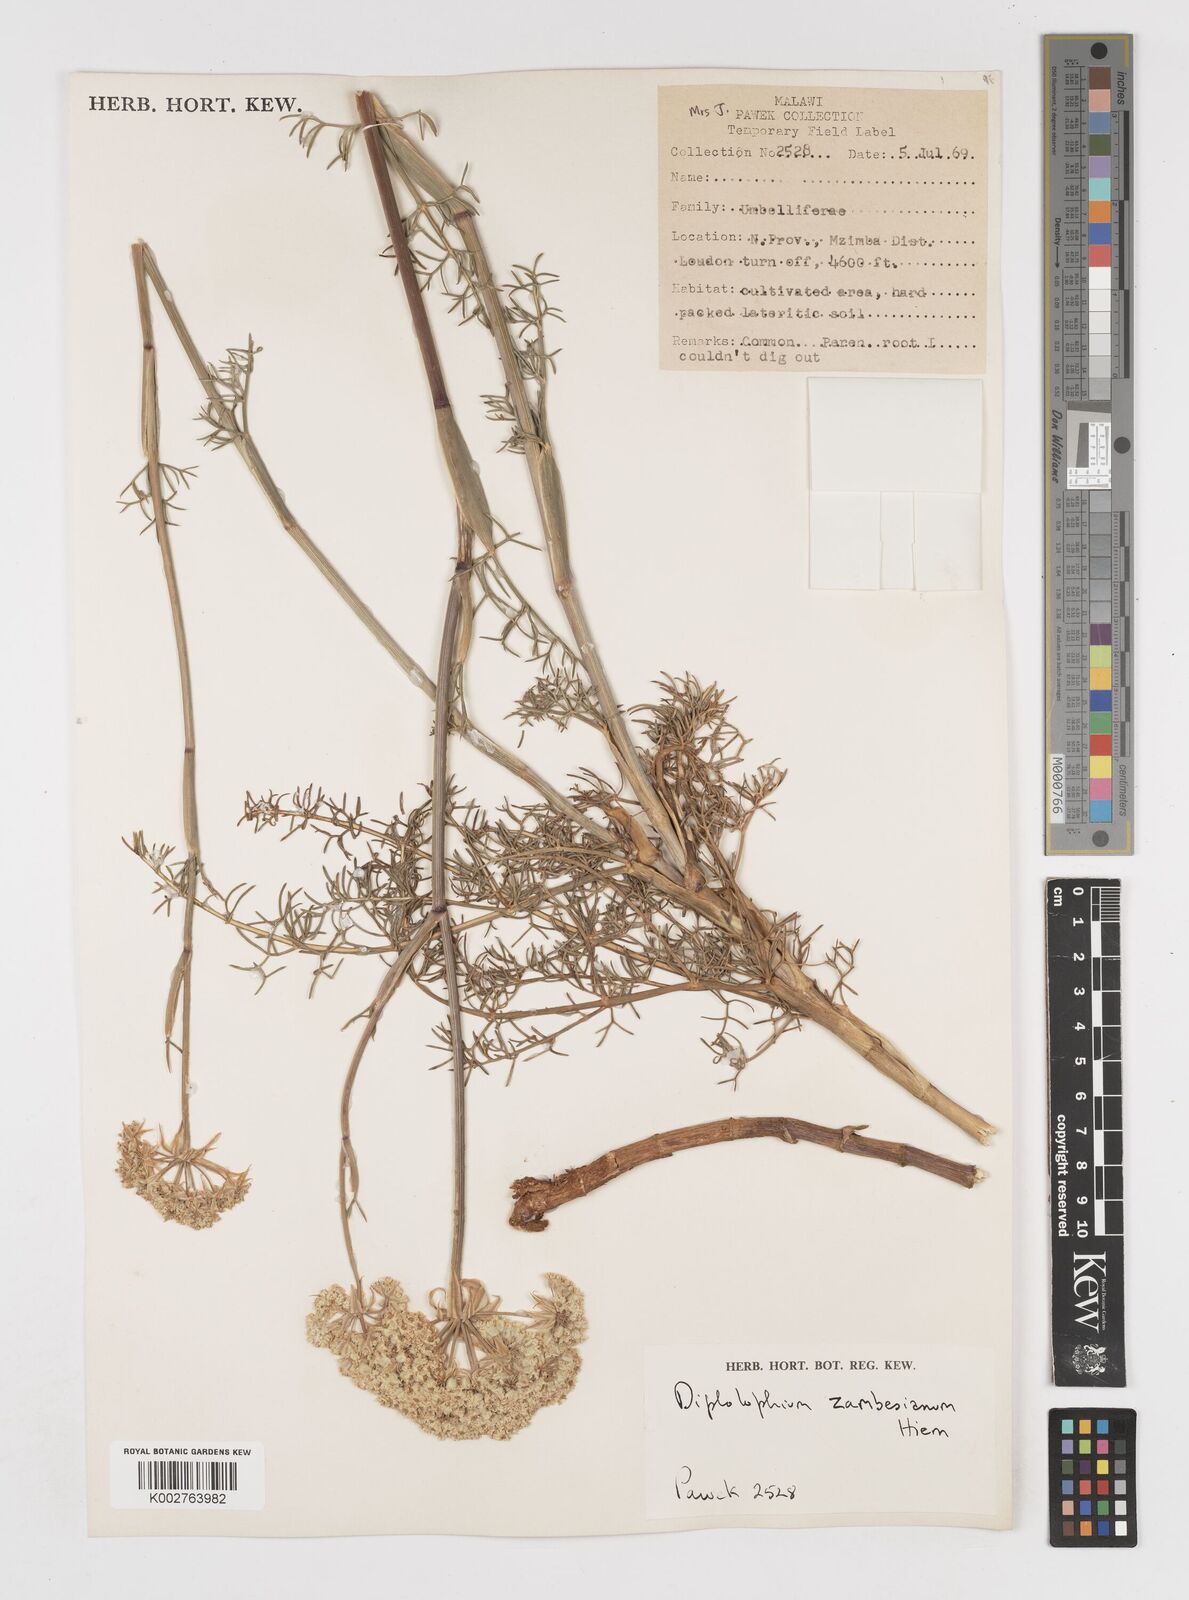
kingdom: Plantae
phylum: Tracheophyta
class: Magnoliopsida
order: Apiales
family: Apiaceae
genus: Diplolophium
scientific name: Diplolophium zambesianum
